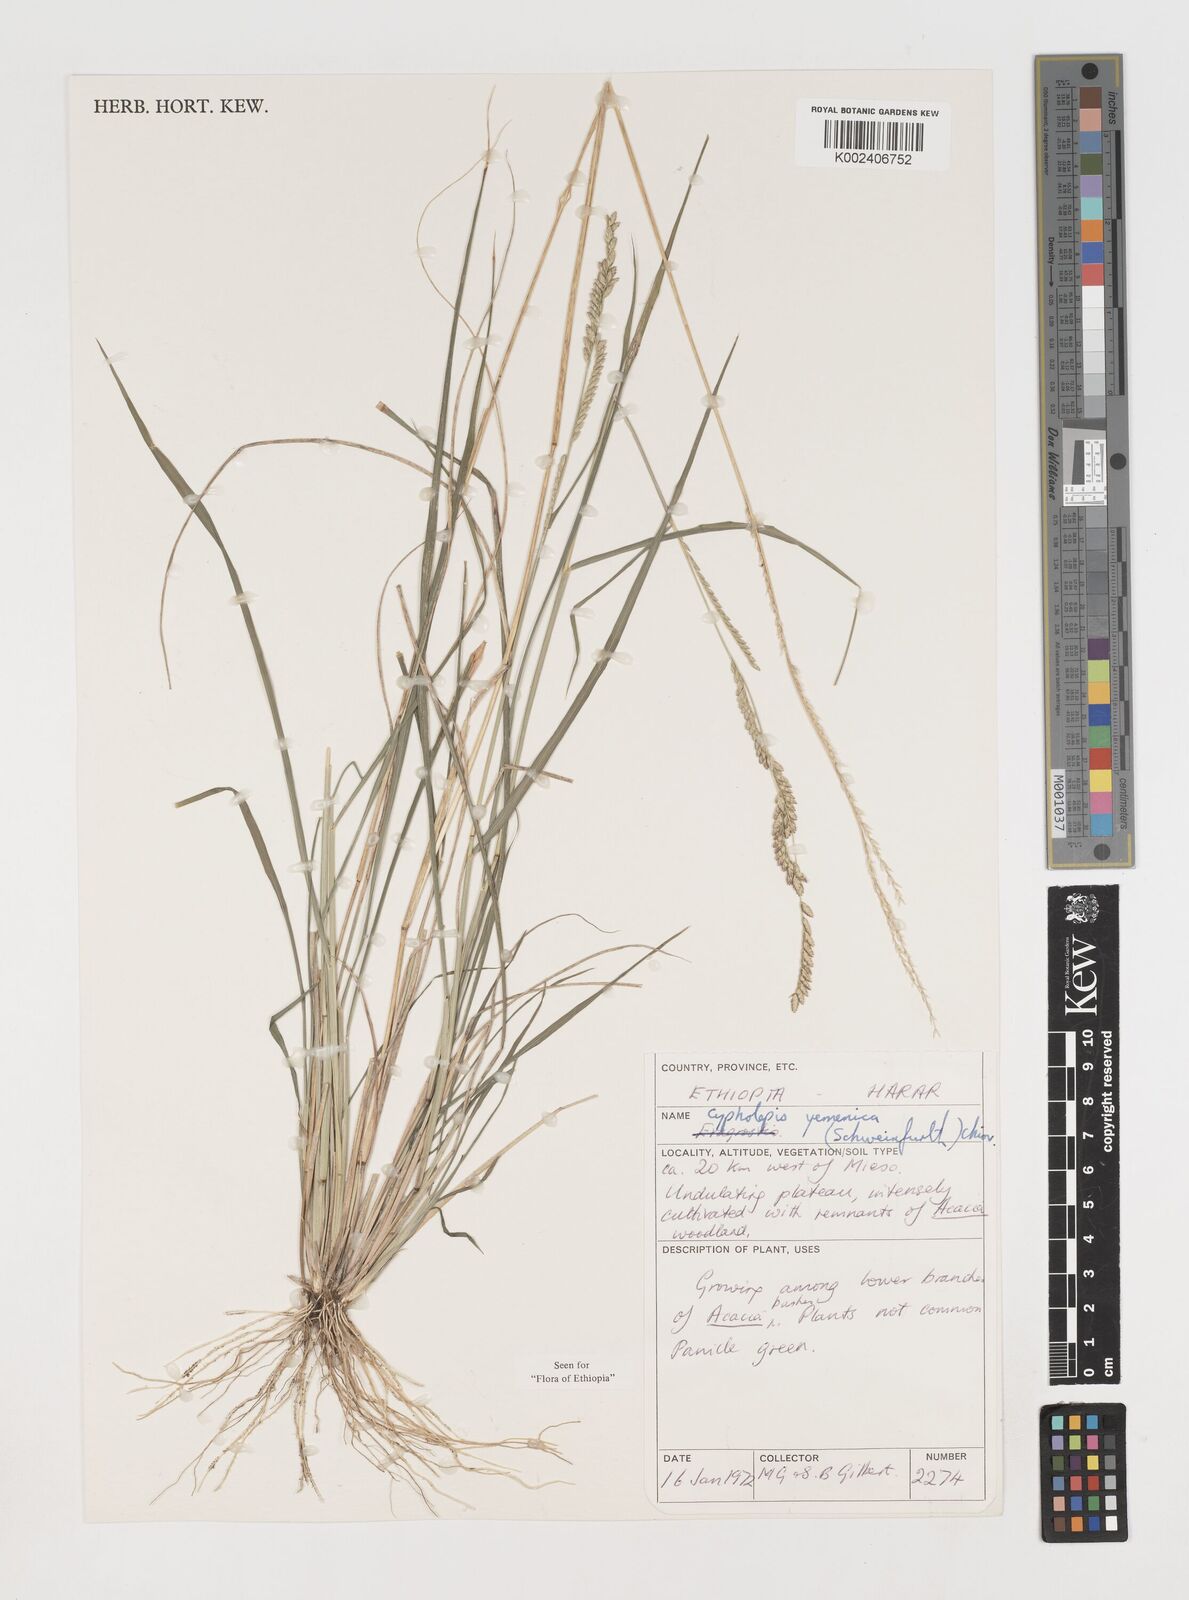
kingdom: Plantae
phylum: Tracheophyta
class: Liliopsida
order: Poales
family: Poaceae
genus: Disakisperma
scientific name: Disakisperma yemenicum
